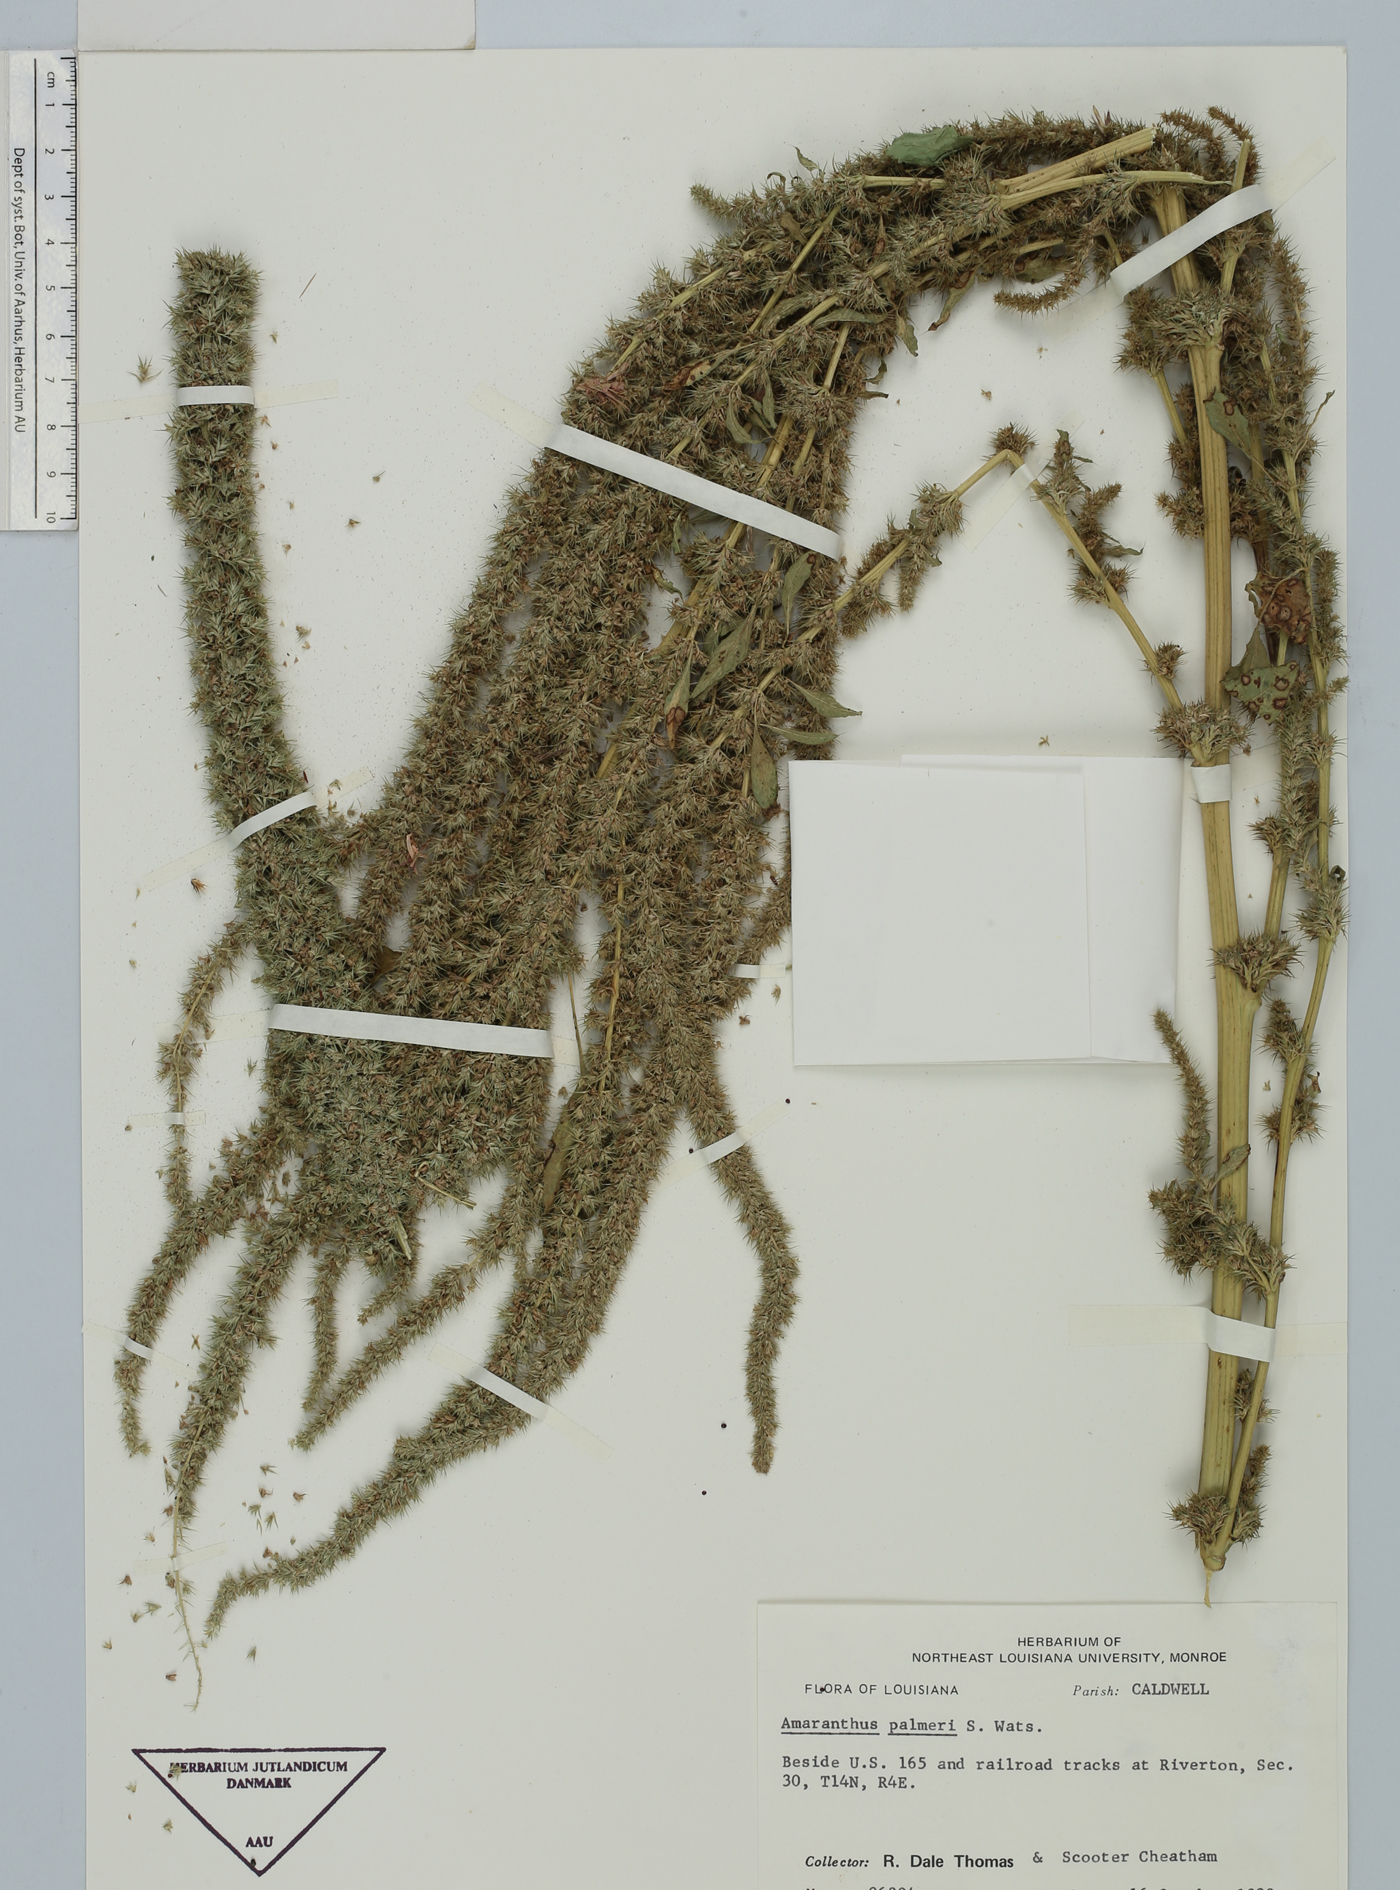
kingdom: Plantae
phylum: Tracheophyta
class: Magnoliopsida
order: Caryophyllales
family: Amaranthaceae
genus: Amaranthus
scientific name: Amaranthus palmeri
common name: Dioecious amaranth
